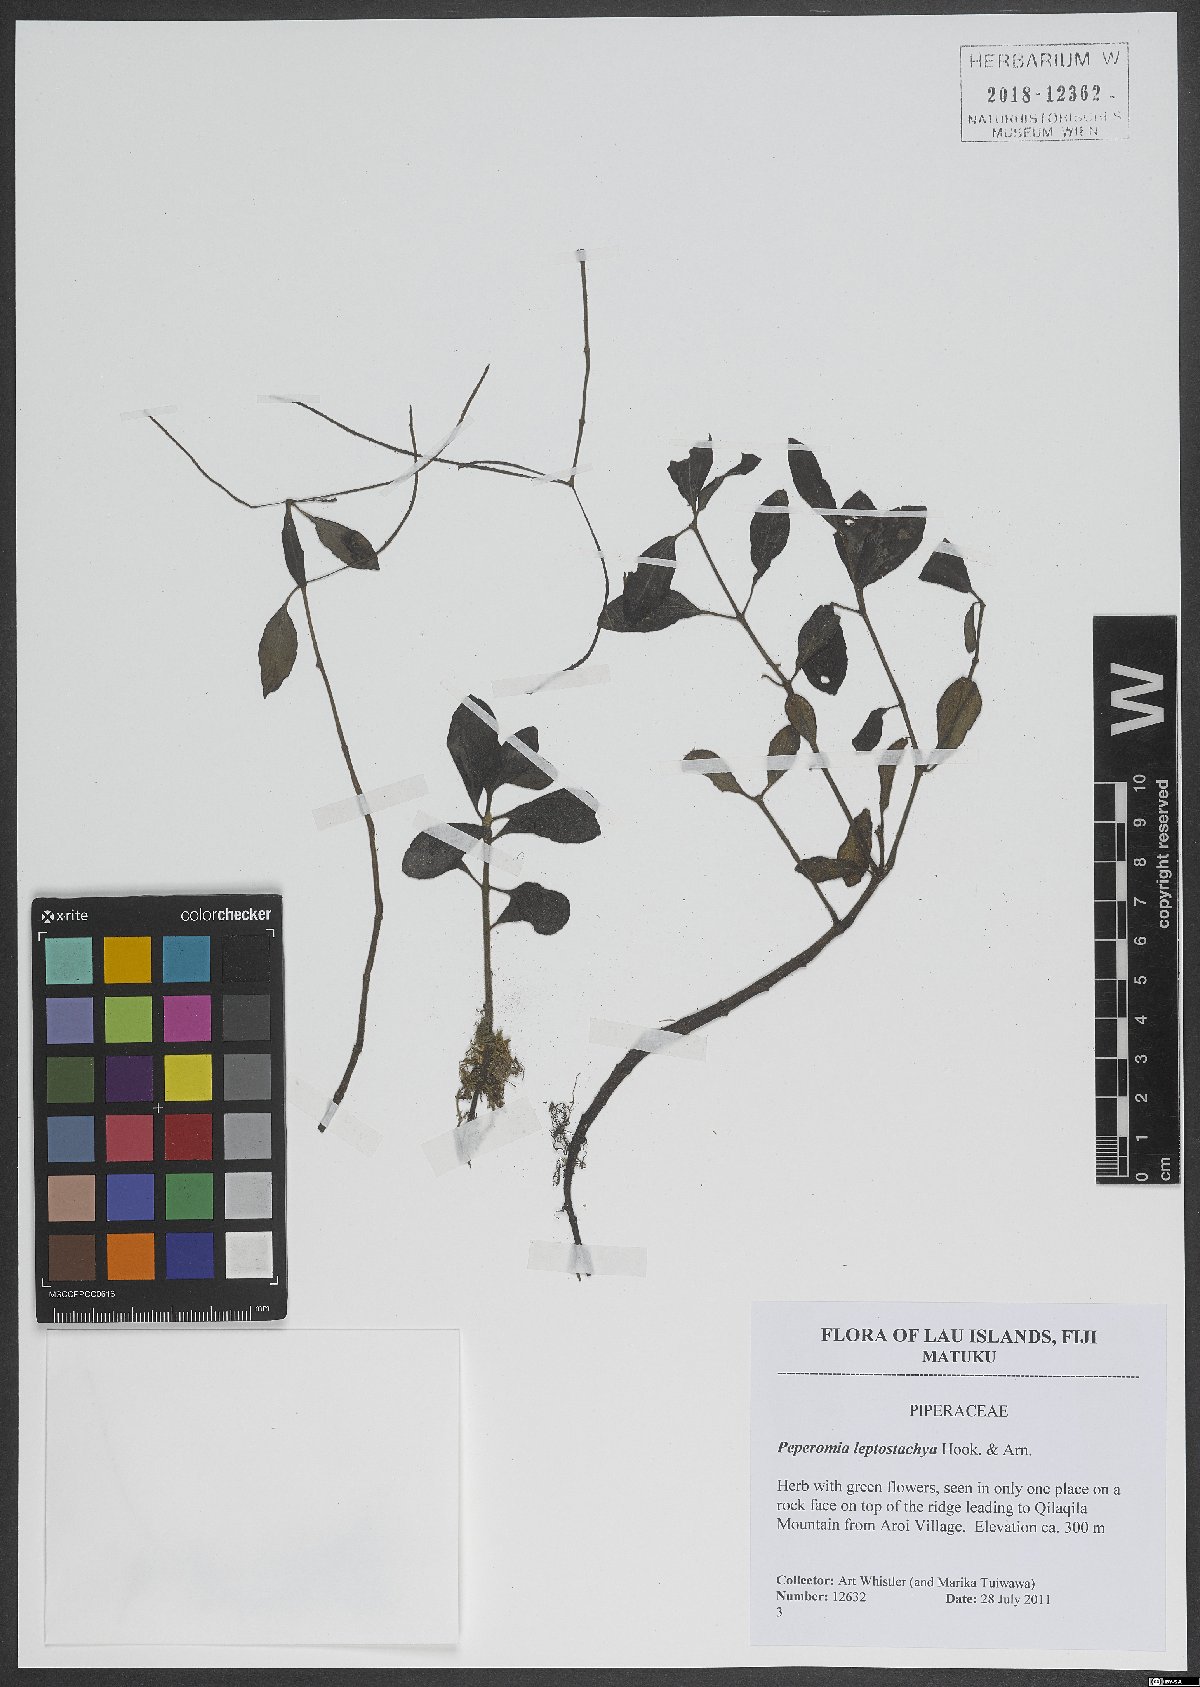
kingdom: Plantae
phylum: Tracheophyta
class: Magnoliopsida
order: Piperales
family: Piperaceae
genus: Peperomia
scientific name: Peperomia leptostachya
